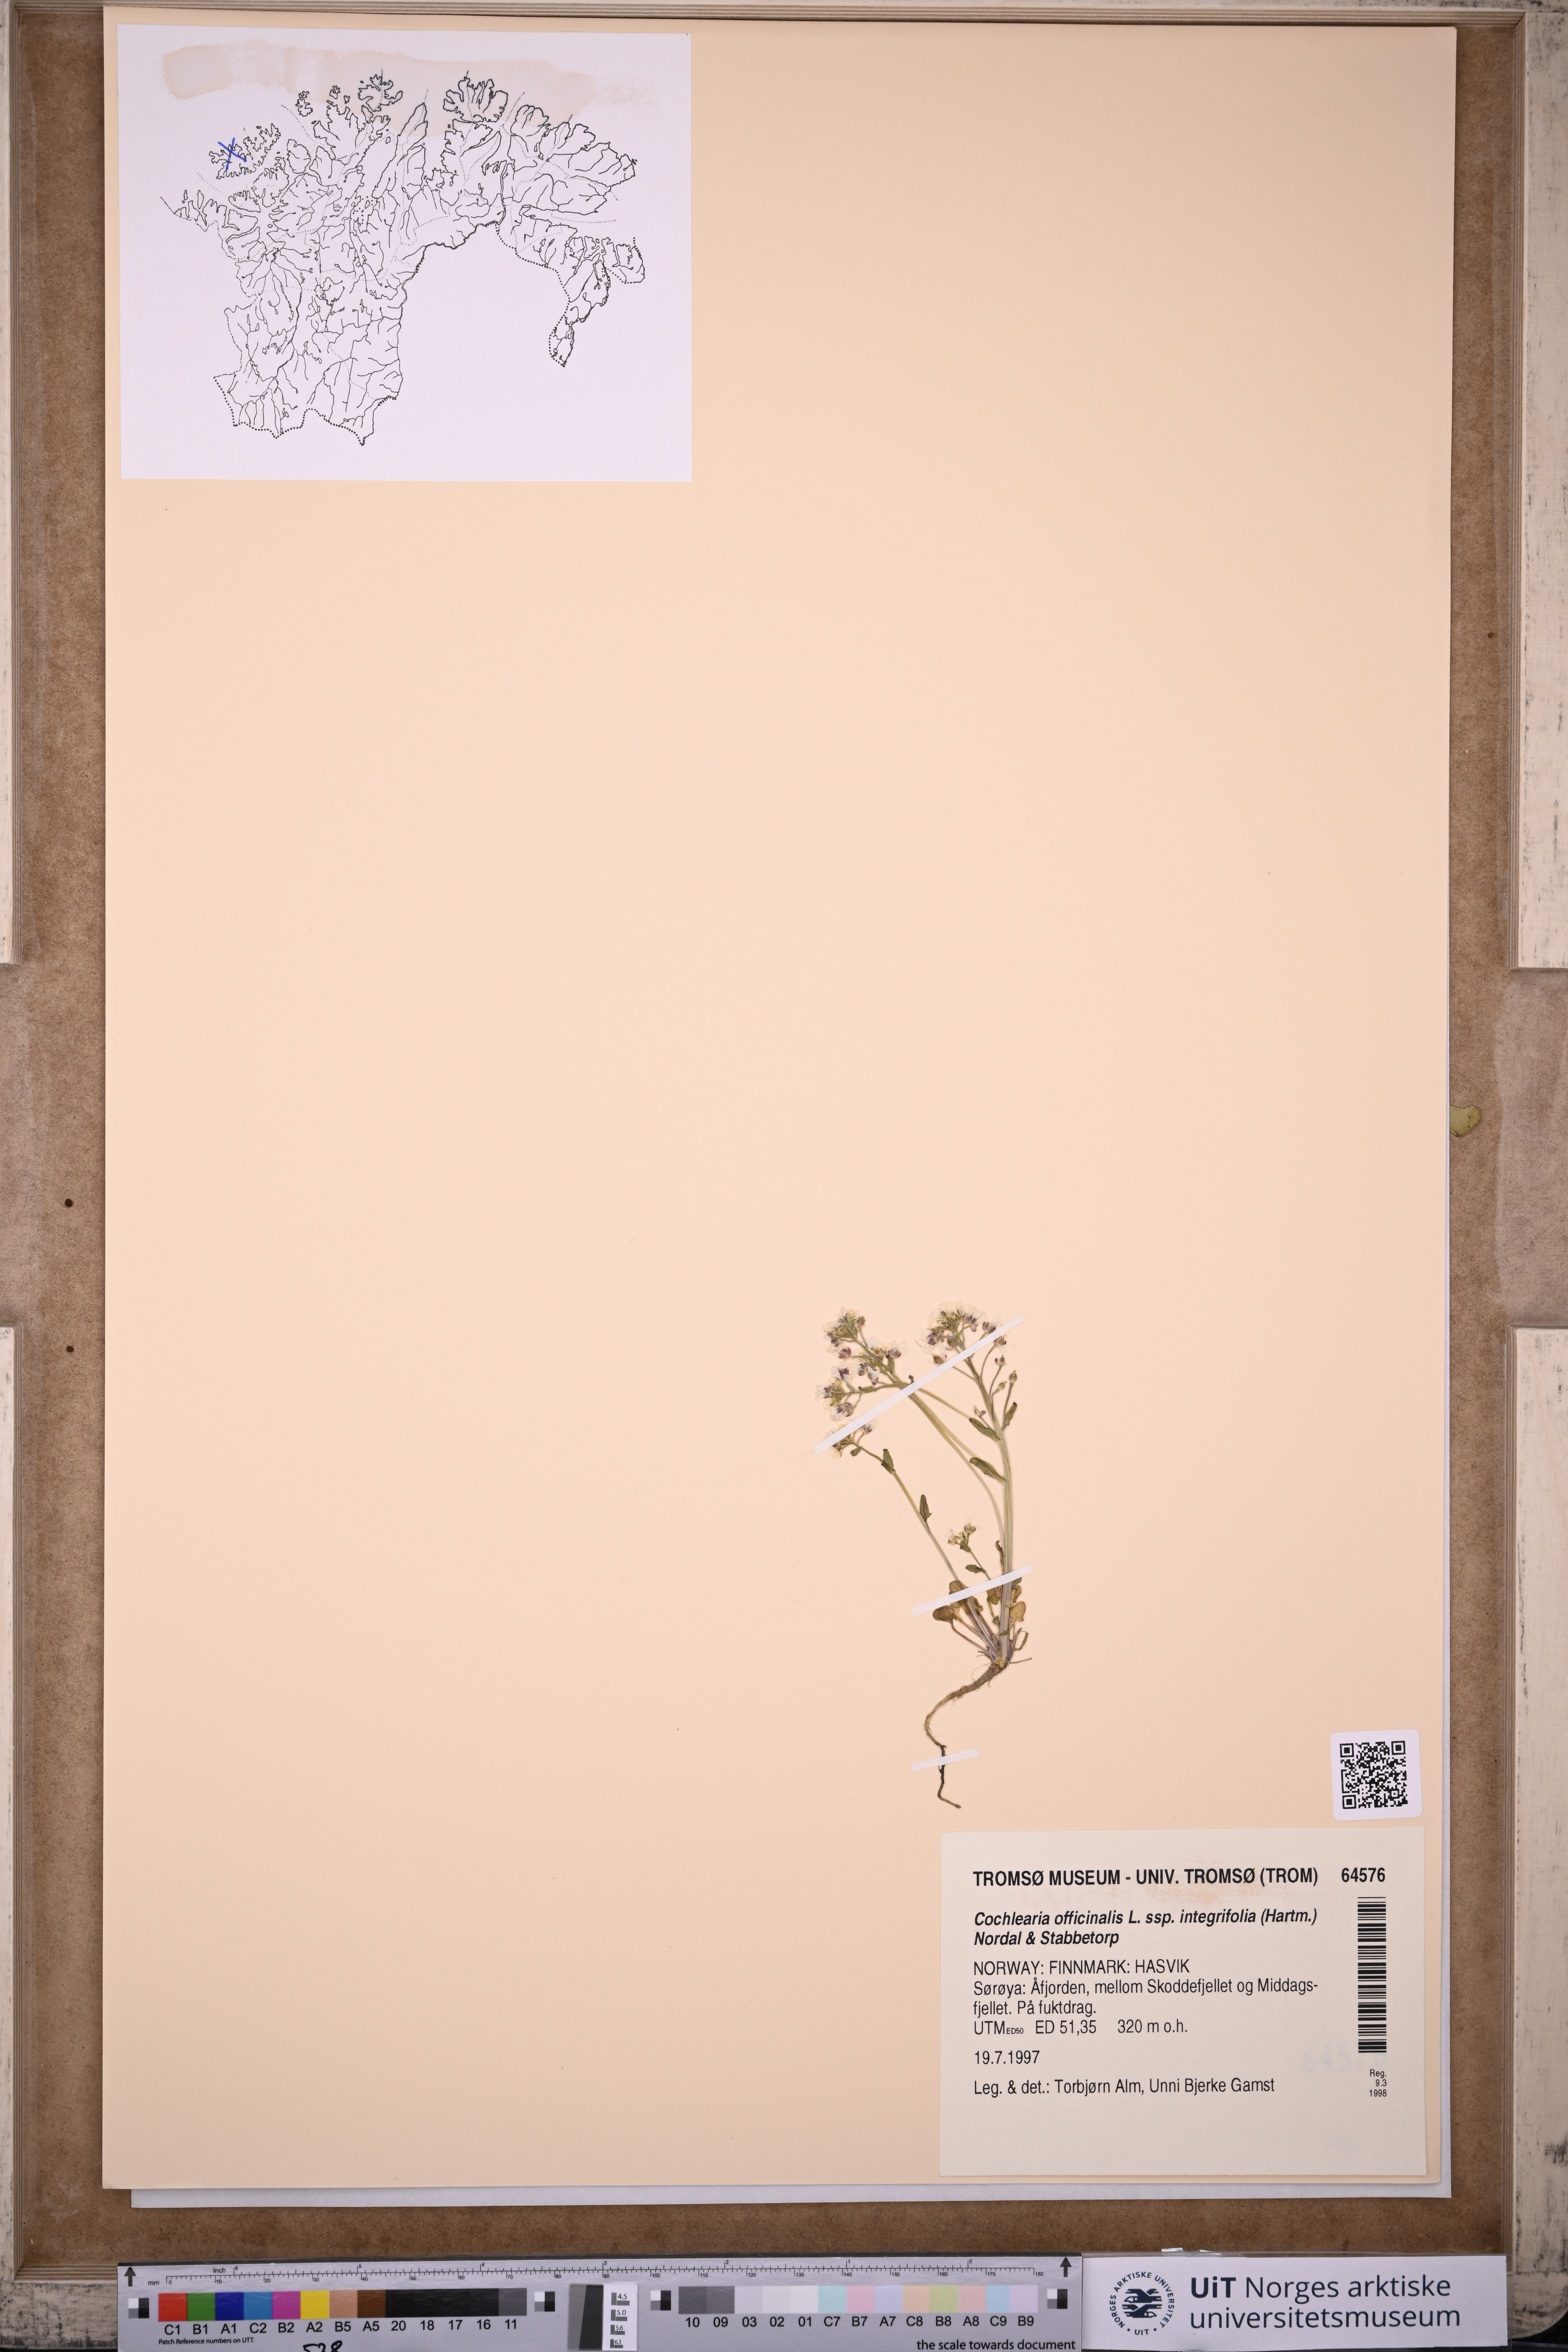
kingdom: Plantae
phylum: Tracheophyta
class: Magnoliopsida
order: Brassicales
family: Brassicaceae
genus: Cochlearia
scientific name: Cochlearia officinalis
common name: Scurvy-grass
